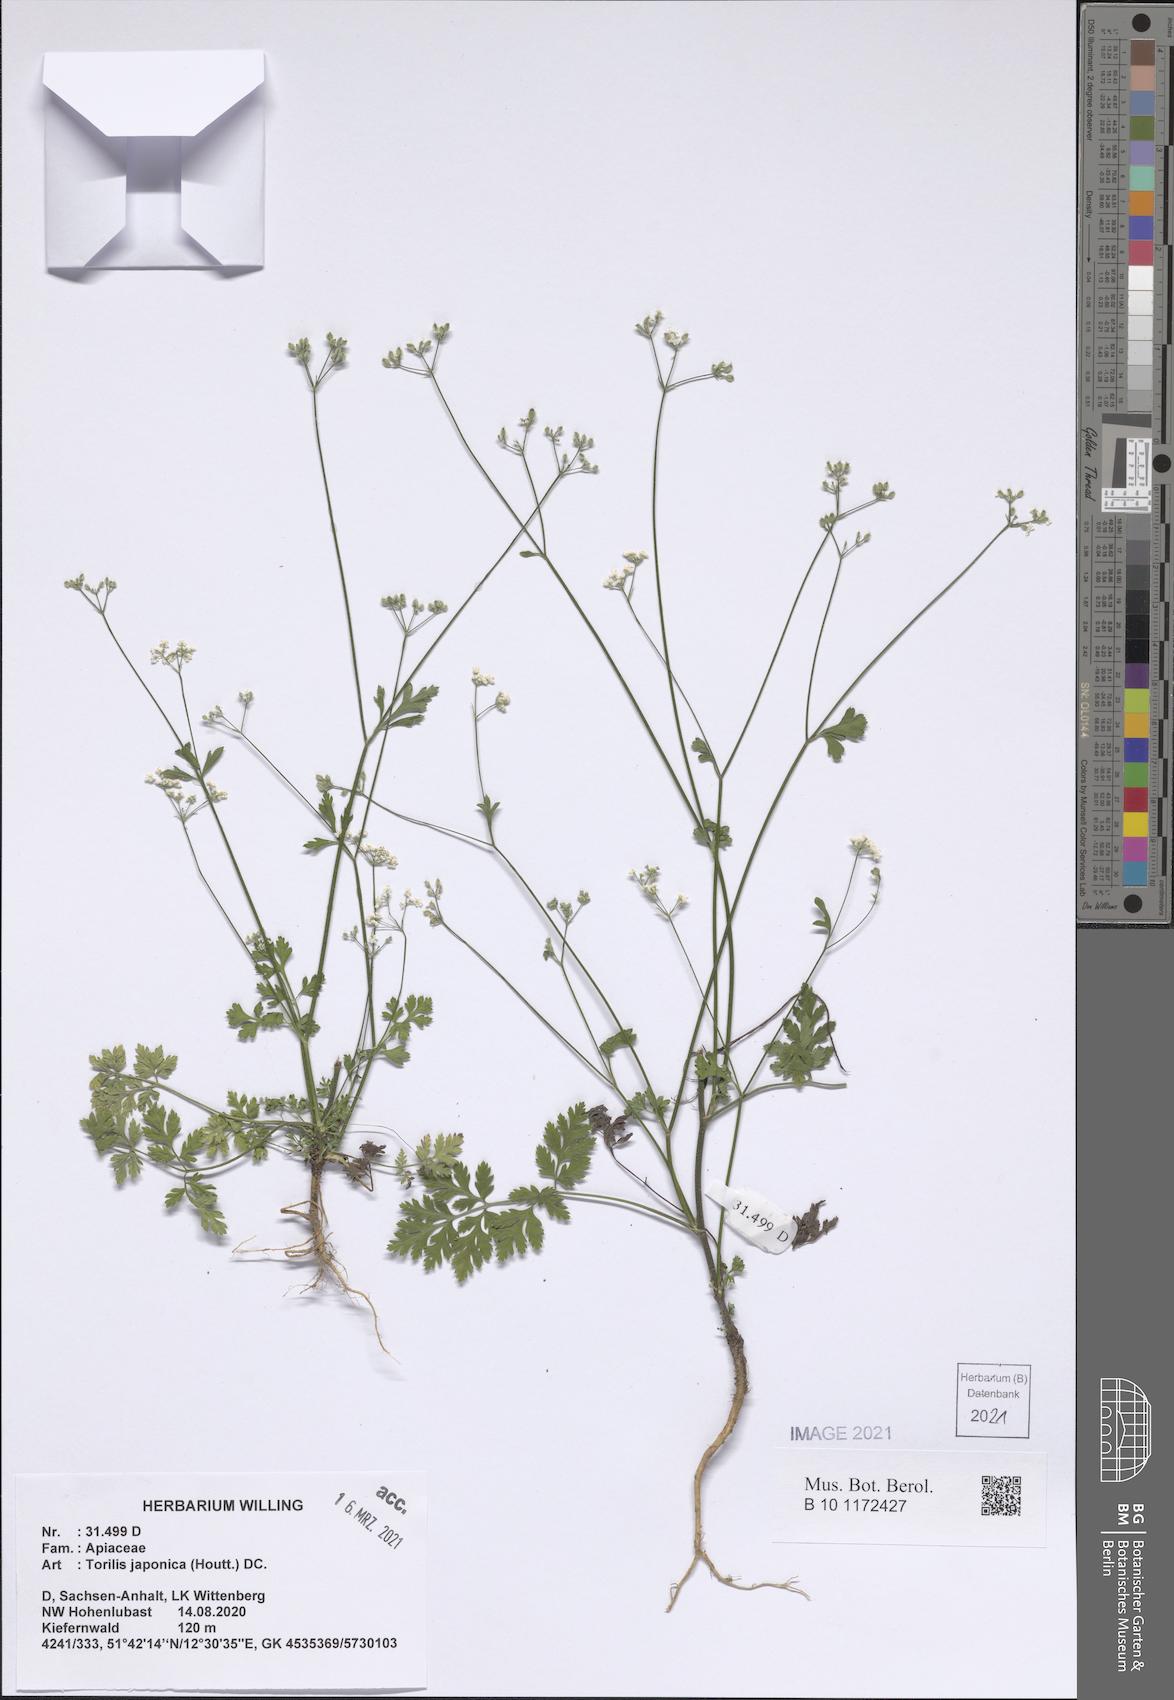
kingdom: Plantae
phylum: Tracheophyta
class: Magnoliopsida
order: Apiales
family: Apiaceae
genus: Torilis
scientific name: Torilis japonica
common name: Upright hedge-parsley
